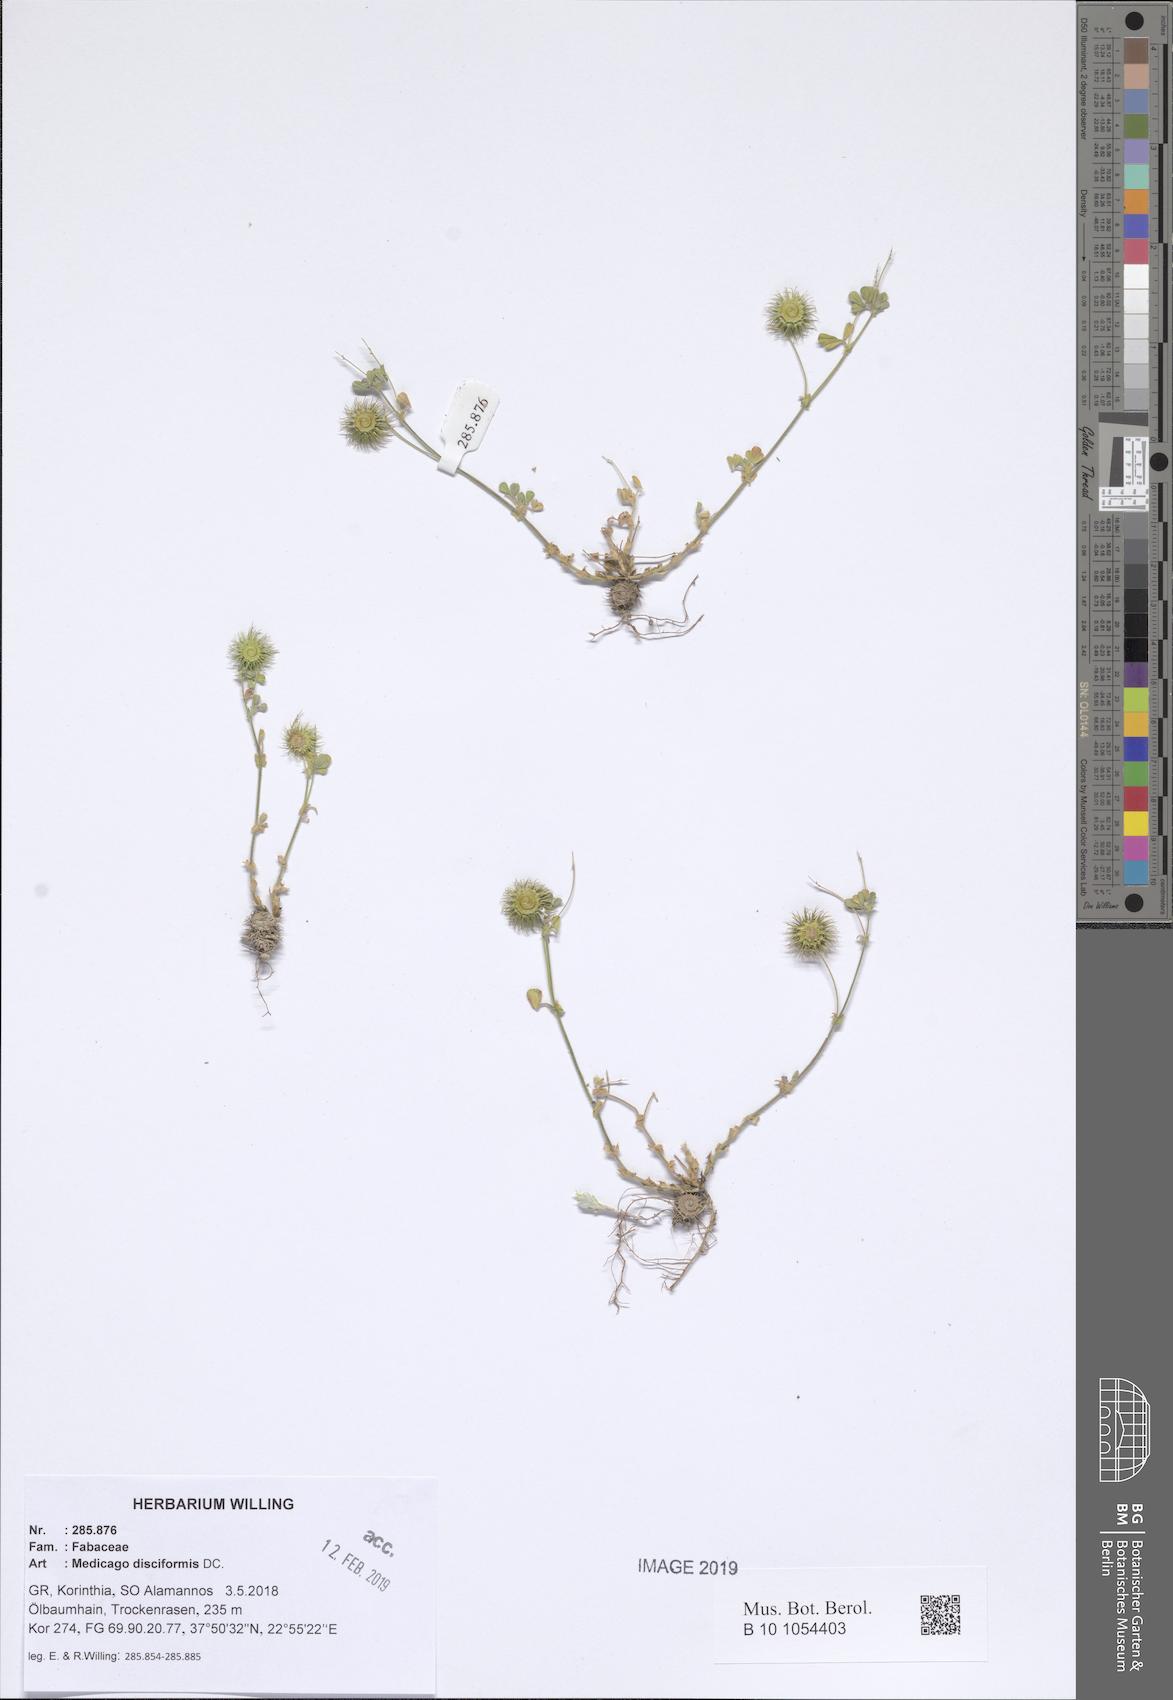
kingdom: Plantae
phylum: Tracheophyta
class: Magnoliopsida
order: Fabales
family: Fabaceae
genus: Medicago
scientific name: Medicago disciformis
